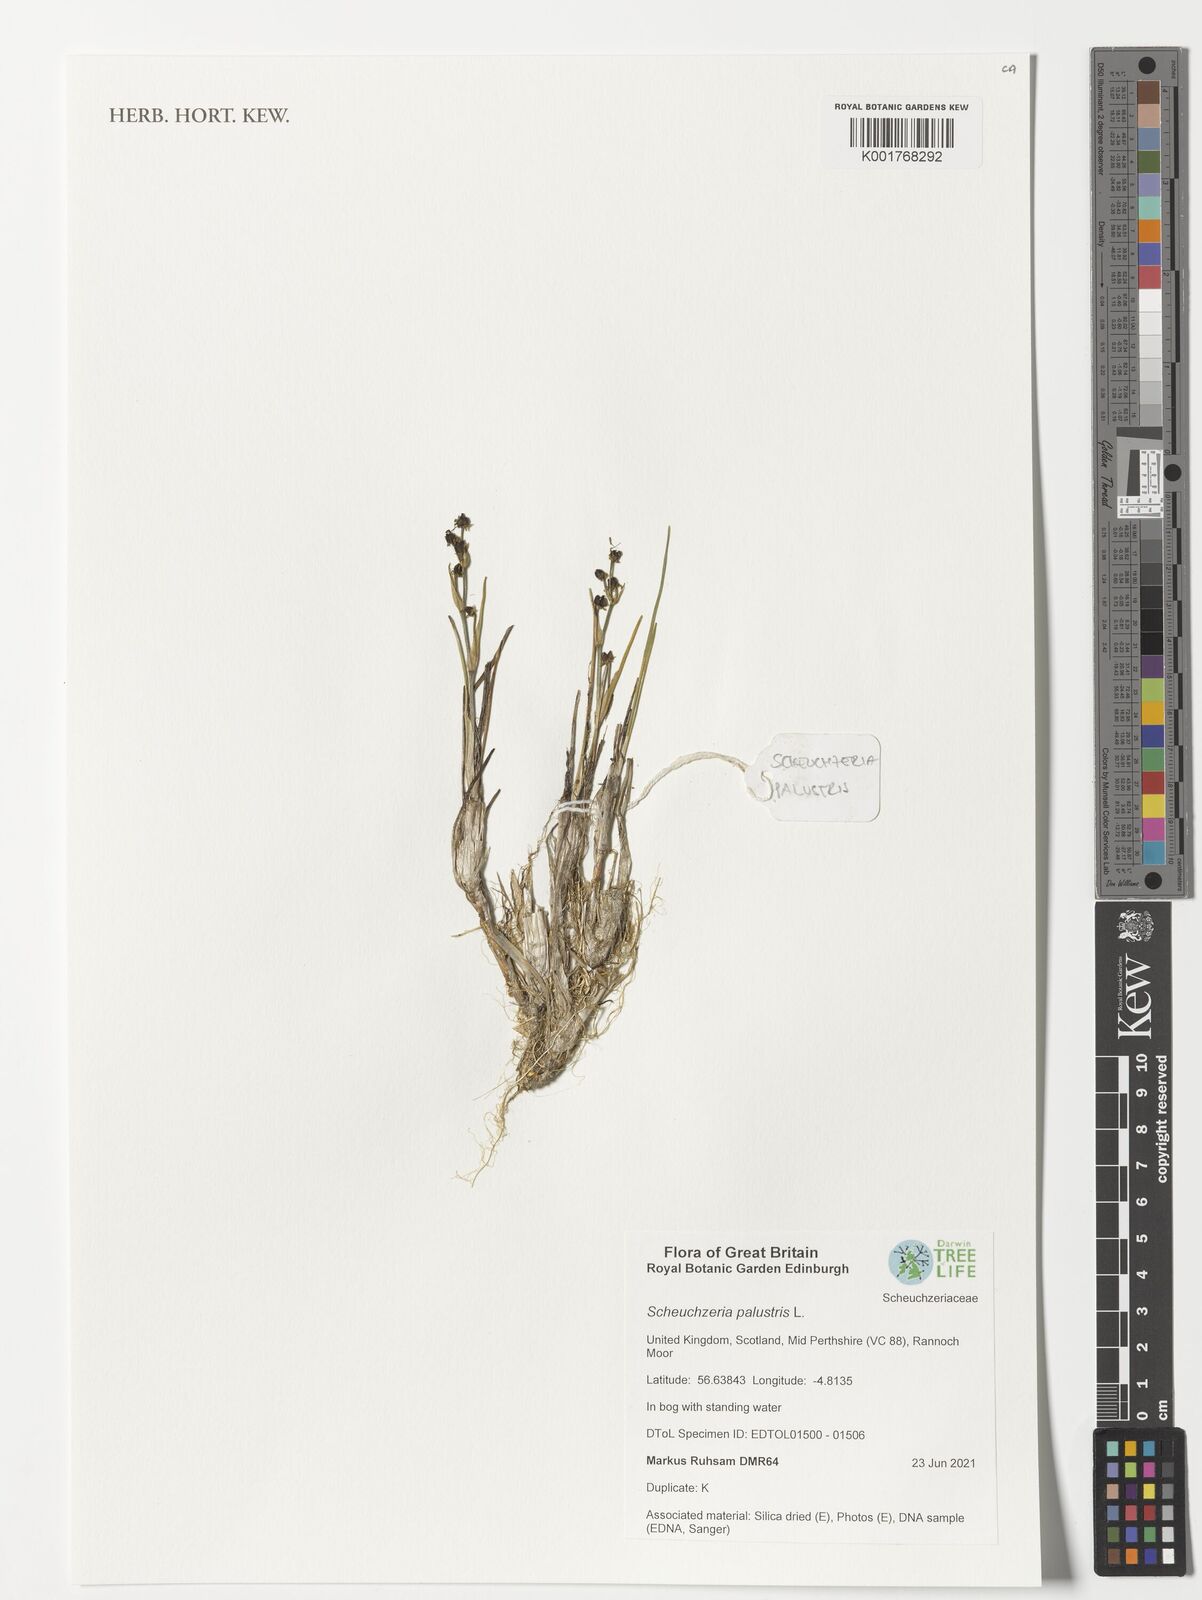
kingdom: Plantae
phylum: Tracheophyta
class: Liliopsida
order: Alismatales
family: Scheuchzeriaceae
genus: Scheuchzeria
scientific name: Scheuchzeria palustris
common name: Rannoch-rush
